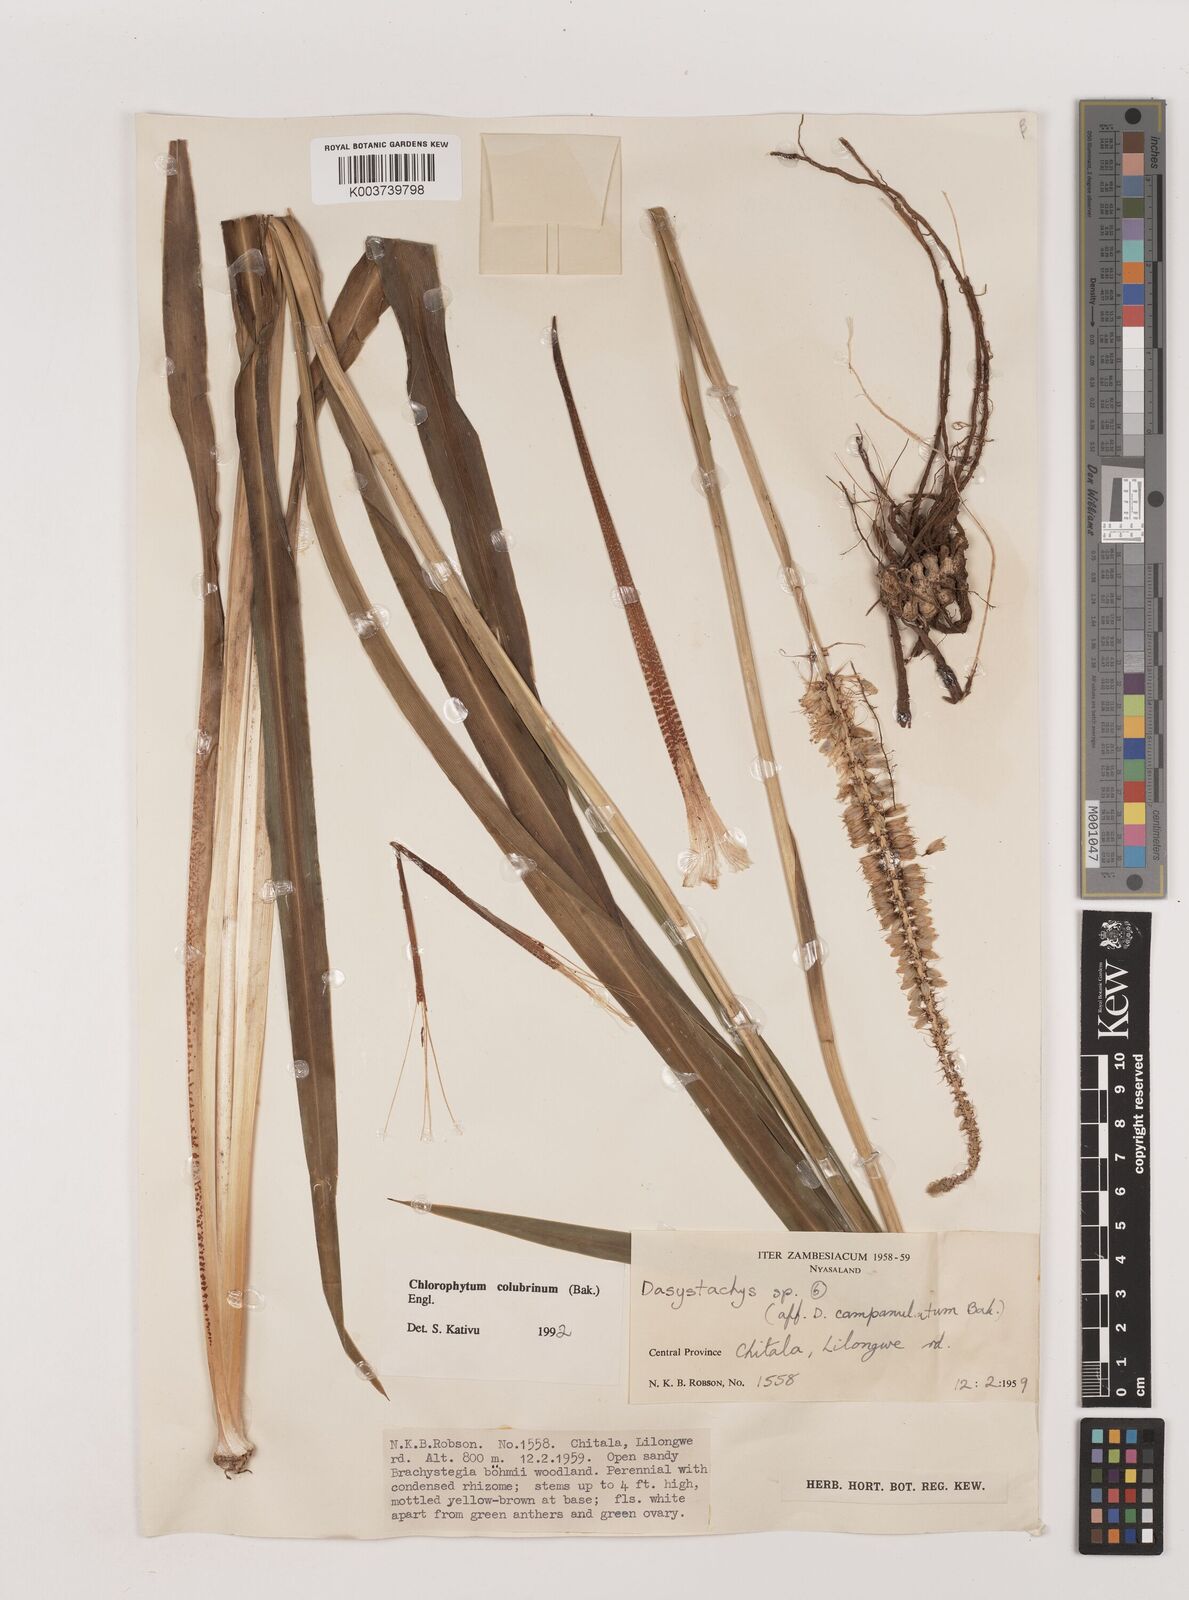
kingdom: Plantae
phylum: Tracheophyta
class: Liliopsida
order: Asparagales
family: Asparagaceae
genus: Chlorophytum
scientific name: Chlorophytum colubrinum
